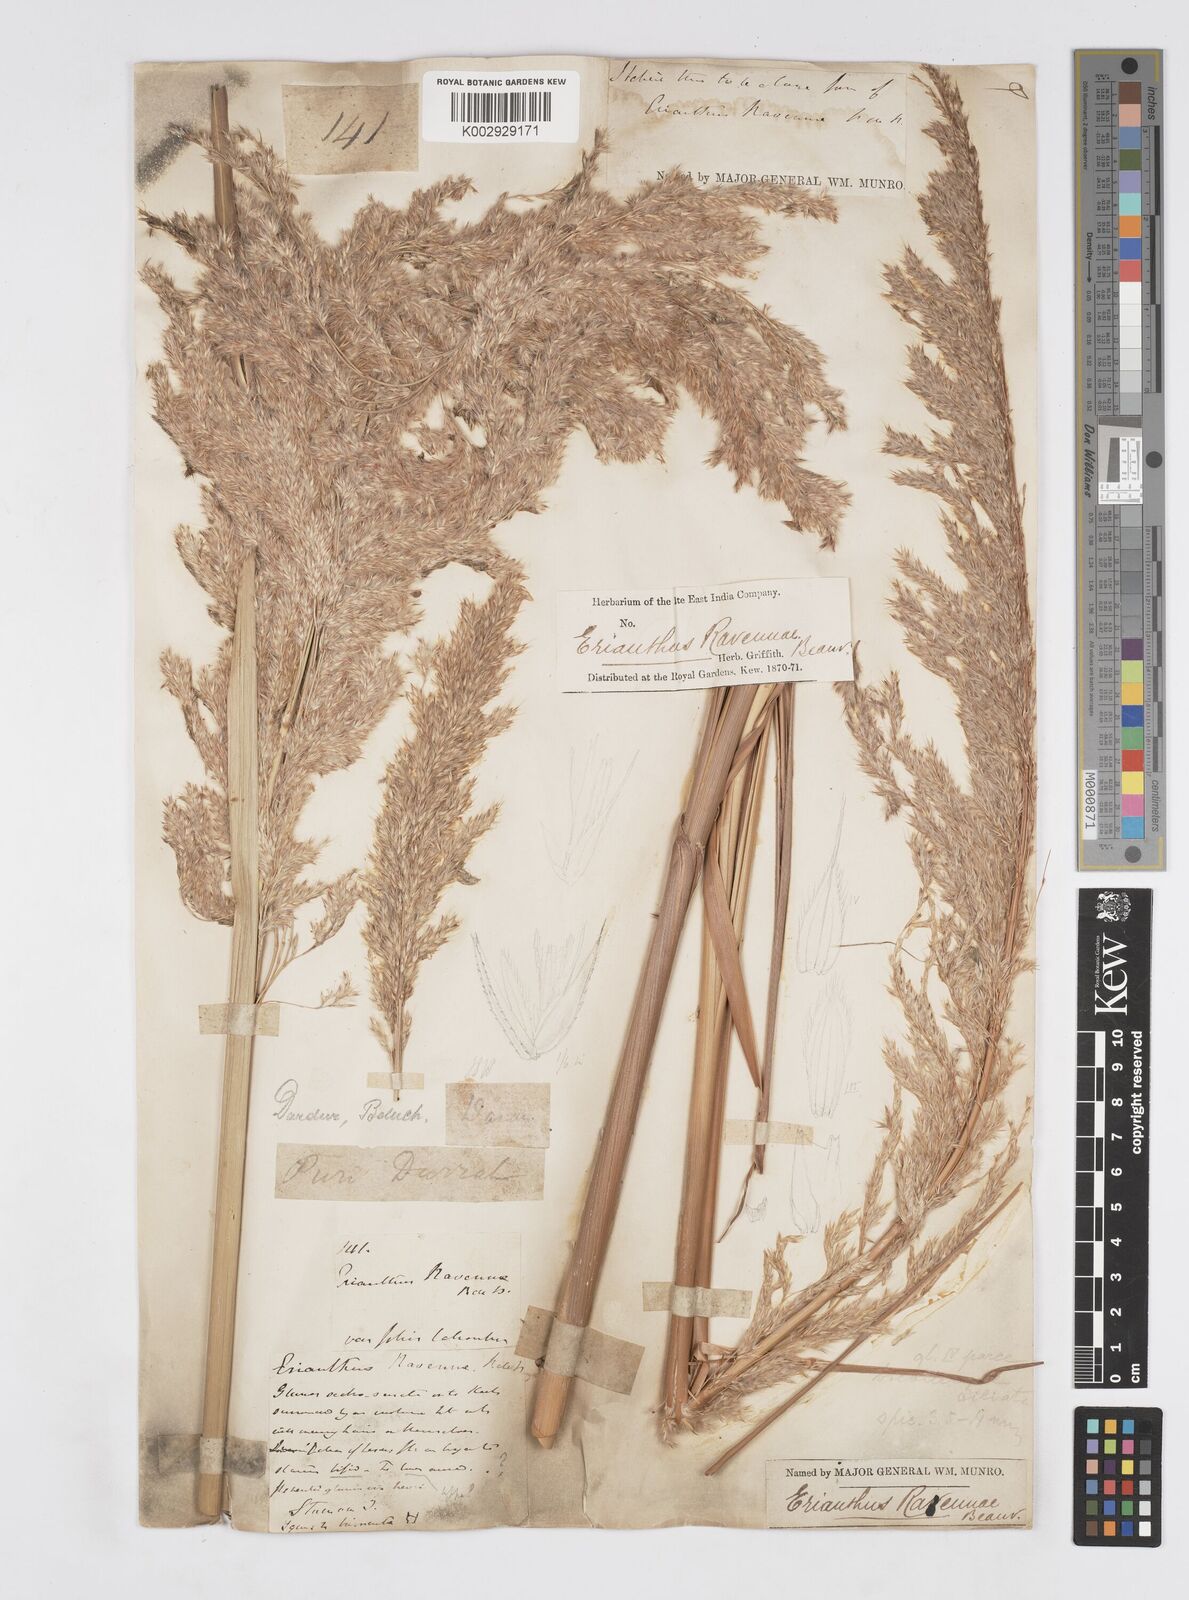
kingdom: Plantae
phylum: Tracheophyta
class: Liliopsida
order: Poales
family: Poaceae
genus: Tripidium
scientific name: Tripidium ravennae
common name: Ravenna grass
